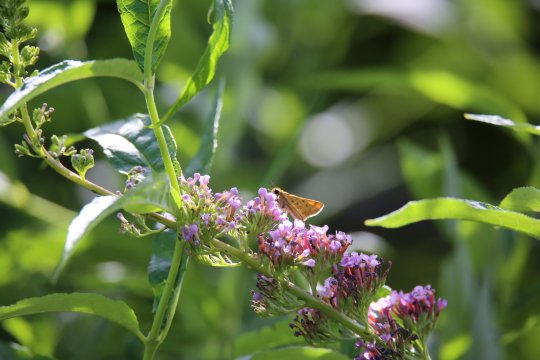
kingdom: Animalia
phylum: Arthropoda
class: Insecta
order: Lepidoptera
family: Hesperiidae
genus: Hylephila
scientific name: Hylephila phyleus
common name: Fiery Skipper
